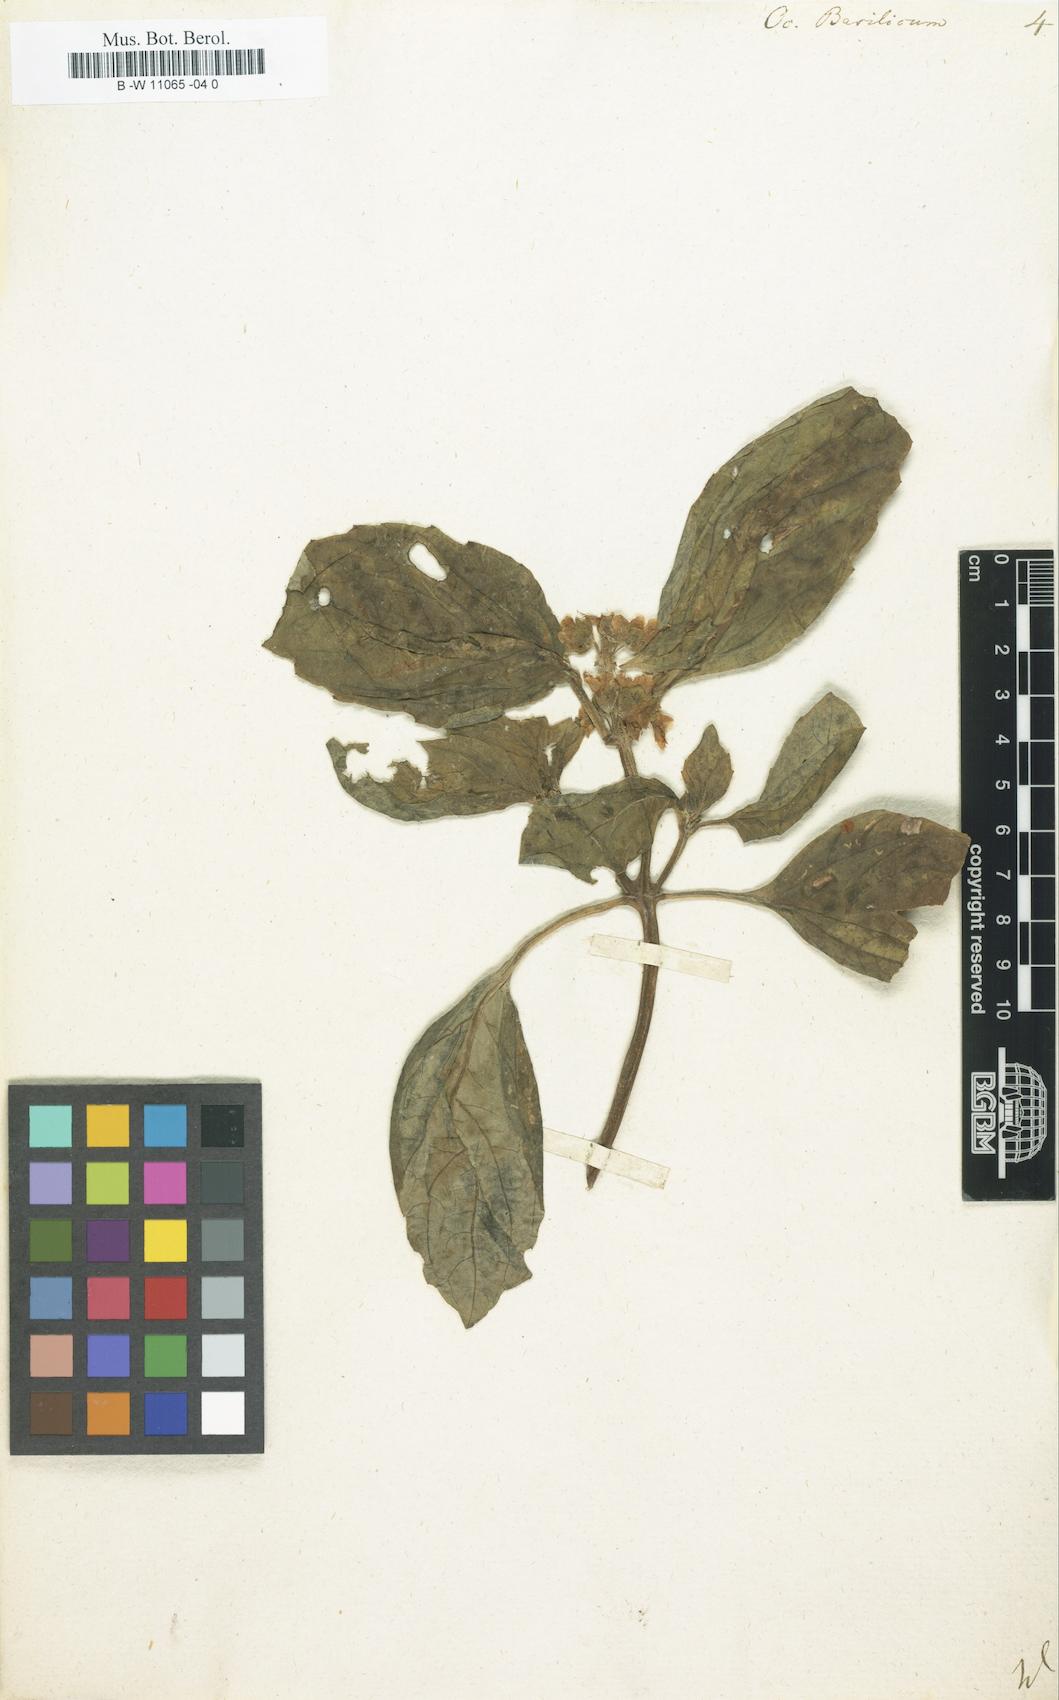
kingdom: Plantae
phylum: Tracheophyta
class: Magnoliopsida
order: Lamiales
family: Lamiaceae
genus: Ocimum
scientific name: Ocimum basilicum
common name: Sweet basil
